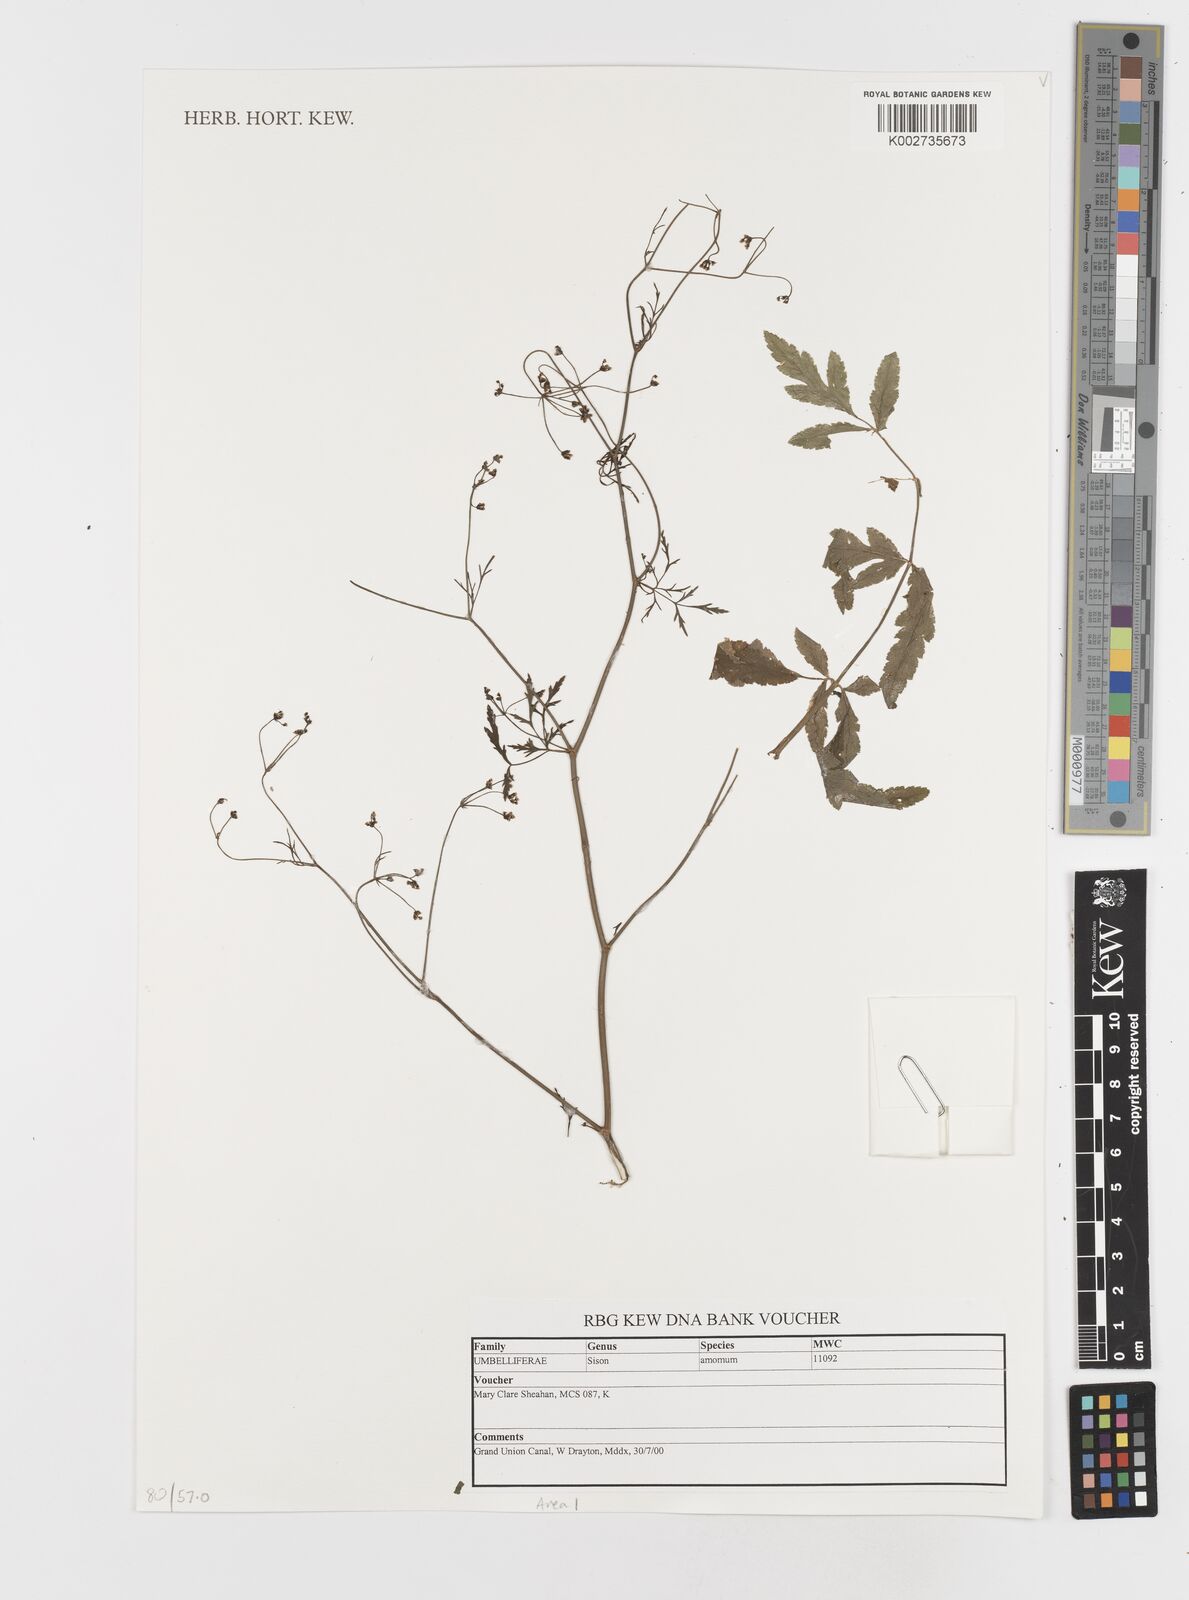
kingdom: Plantae
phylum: Tracheophyta
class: Magnoliopsida
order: Apiales
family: Apiaceae
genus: Sison
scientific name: Sison amomum
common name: Stone-parsley
